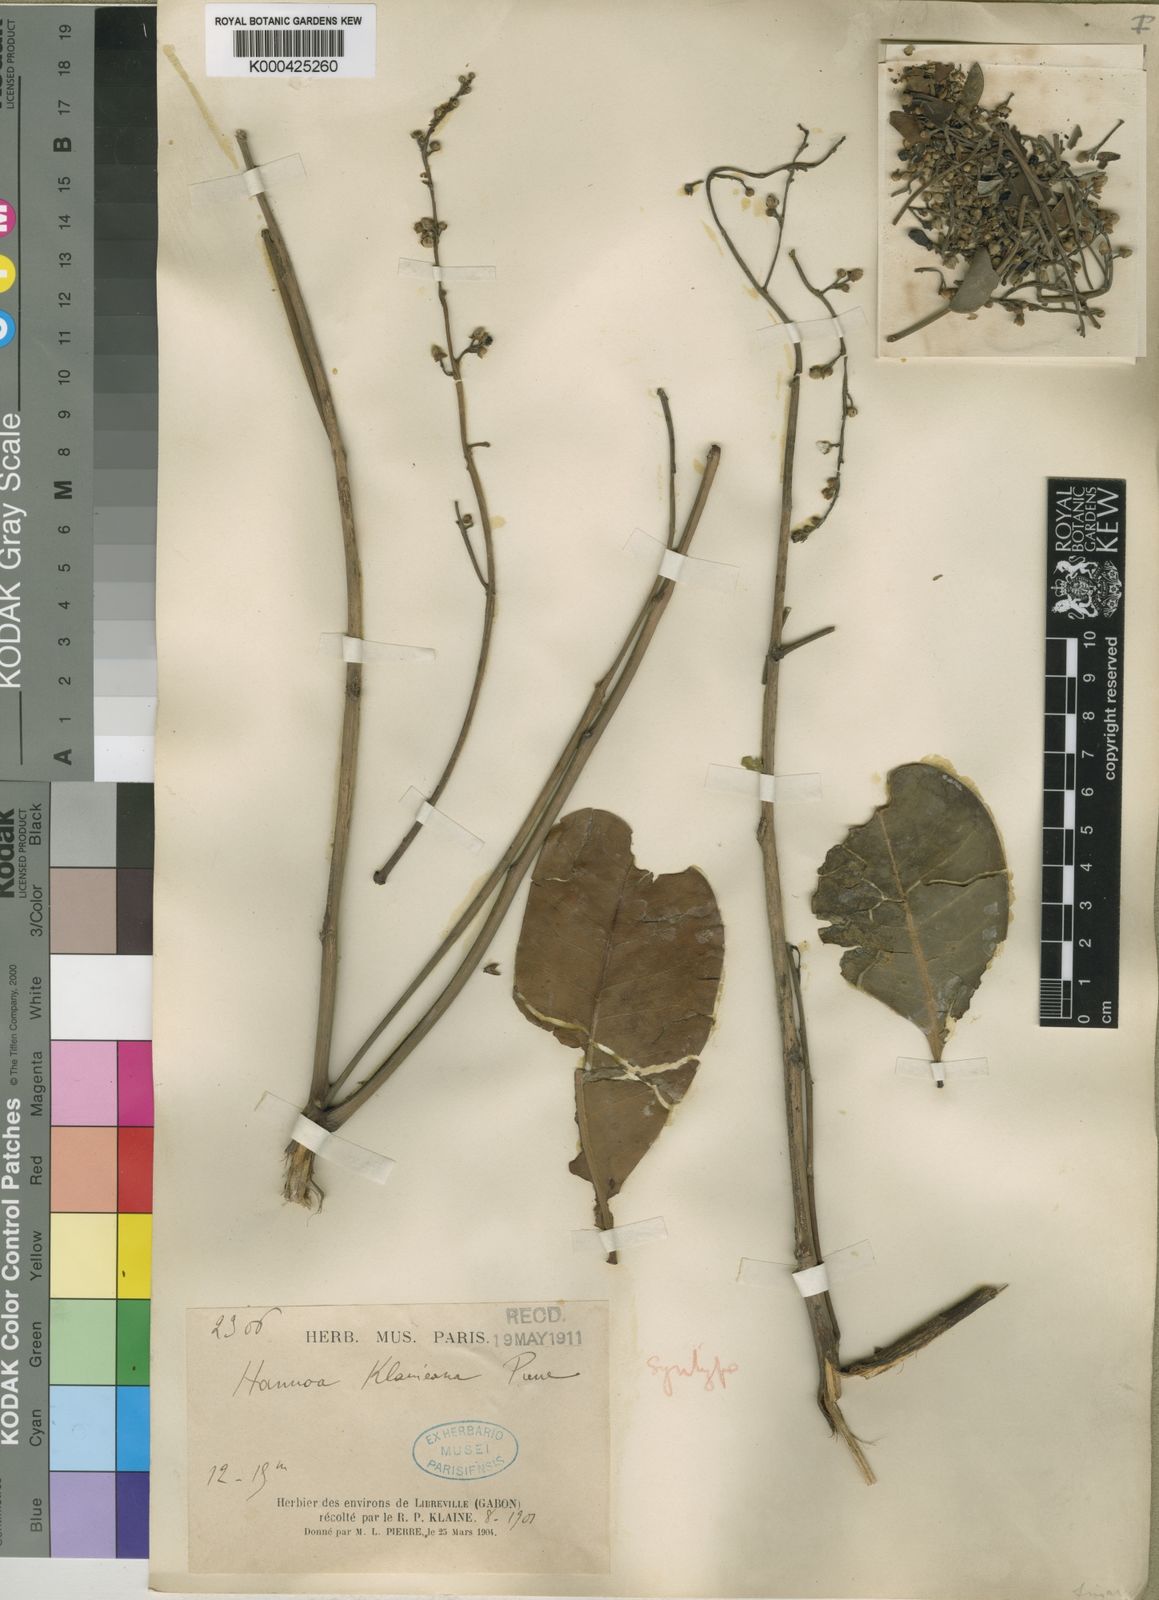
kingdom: Plantae
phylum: Tracheophyta
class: Magnoliopsida
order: Sapindales
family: Simaroubaceae
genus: Odyendyea
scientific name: Odyendyea klaineana
